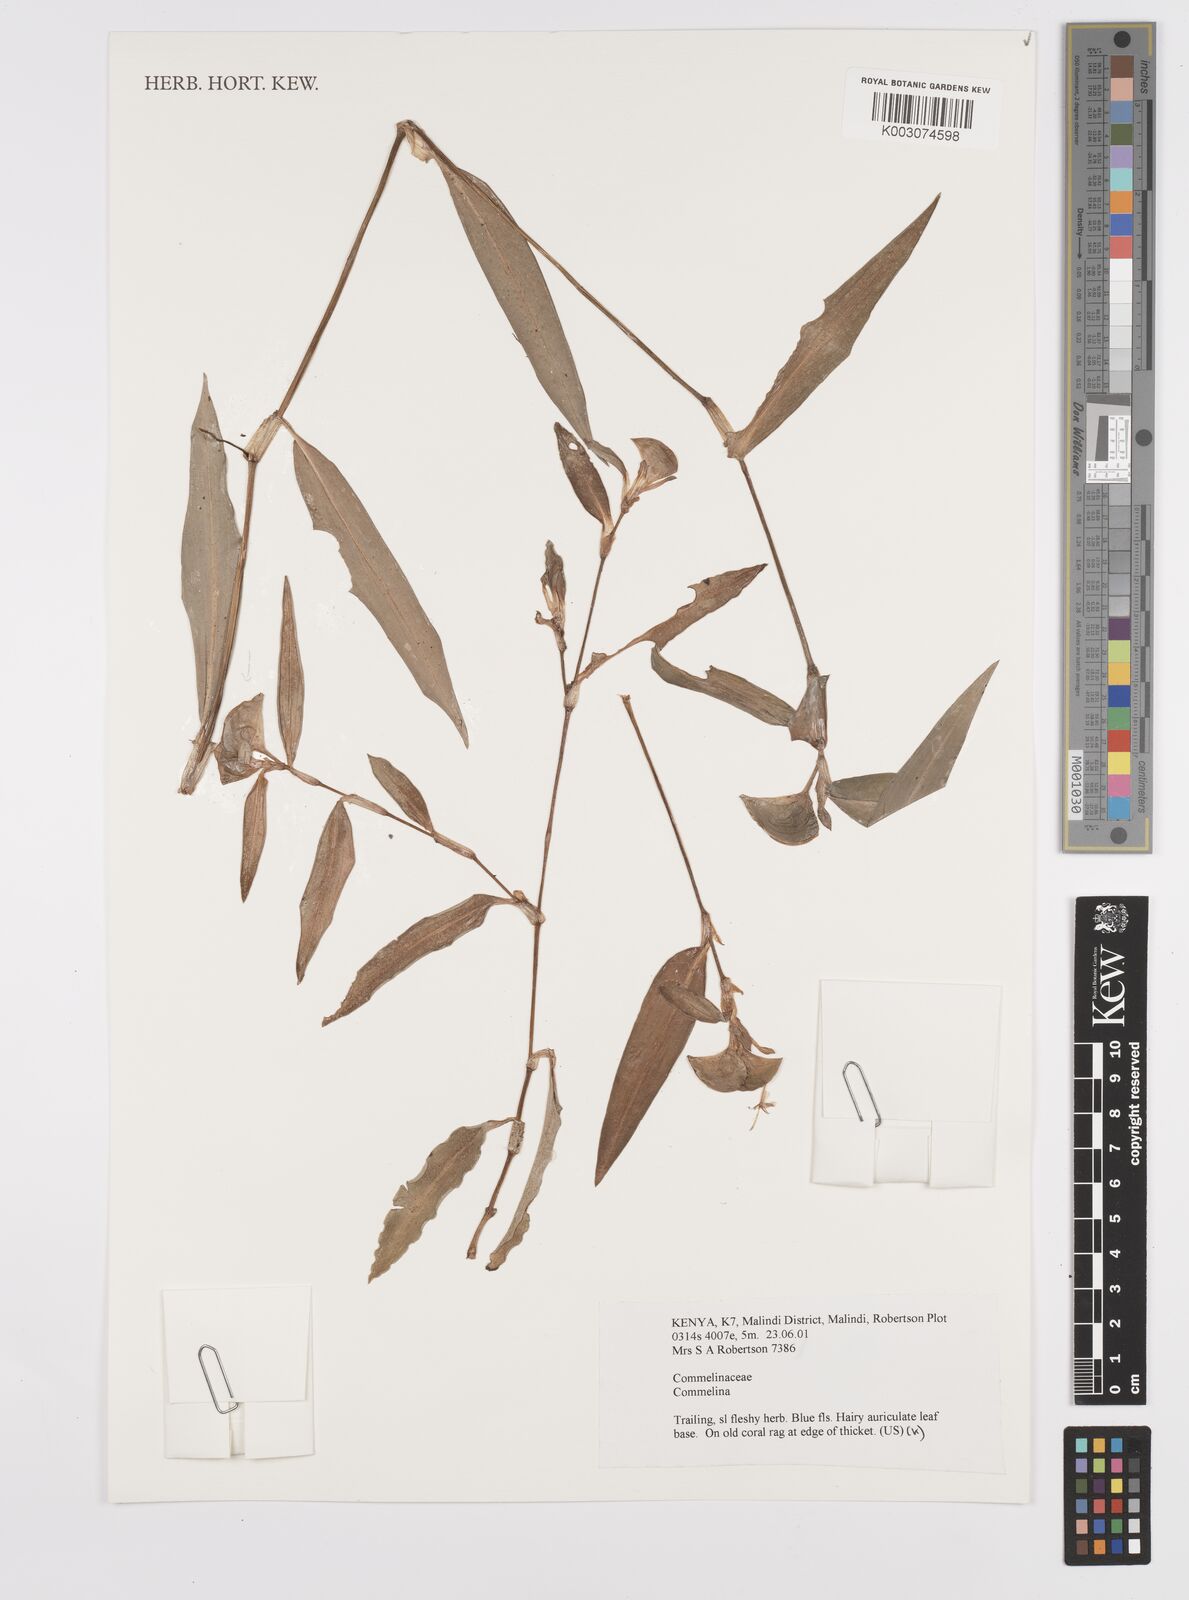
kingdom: Plantae
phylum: Tracheophyta
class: Liliopsida
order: Commelinales
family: Commelinaceae
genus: Commelina
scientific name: Commelina erecta
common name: Blousel blommetjie
